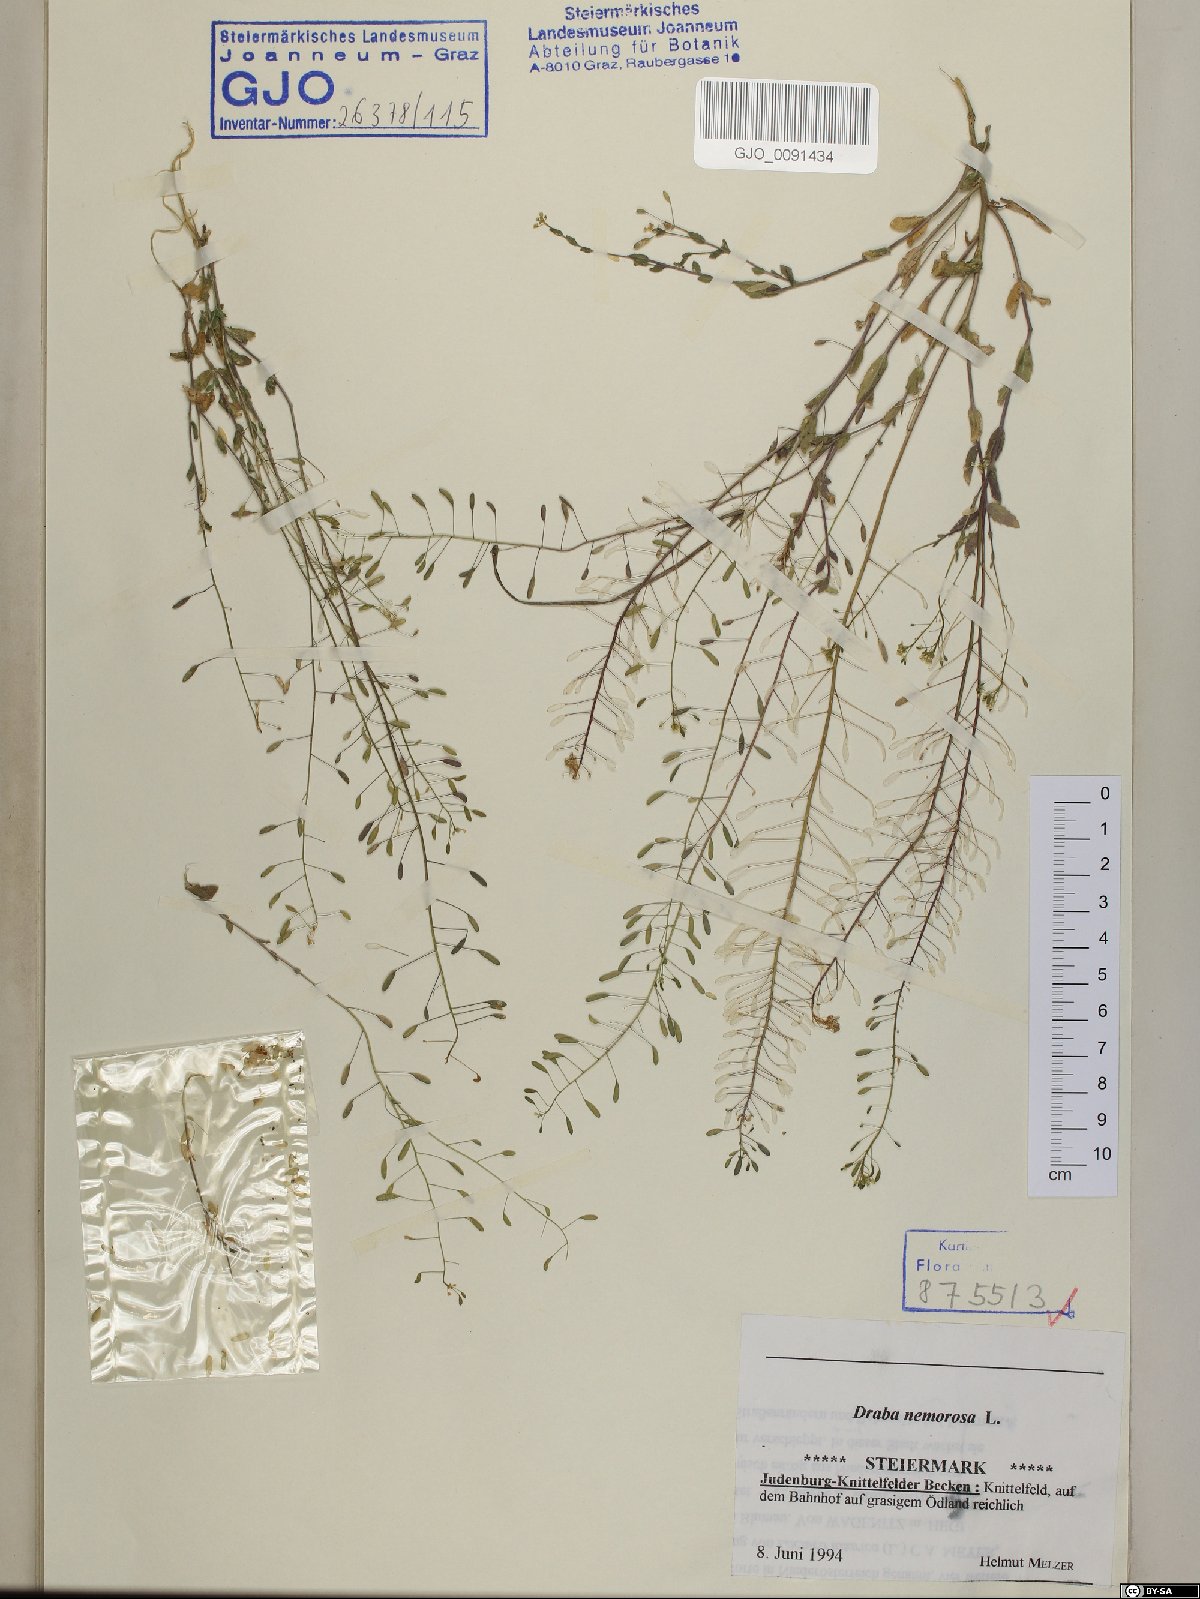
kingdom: Plantae
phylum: Tracheophyta
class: Magnoliopsida
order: Brassicales
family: Brassicaceae
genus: Draba
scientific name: Draba nemorosa
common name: Wood whitlow-grass
